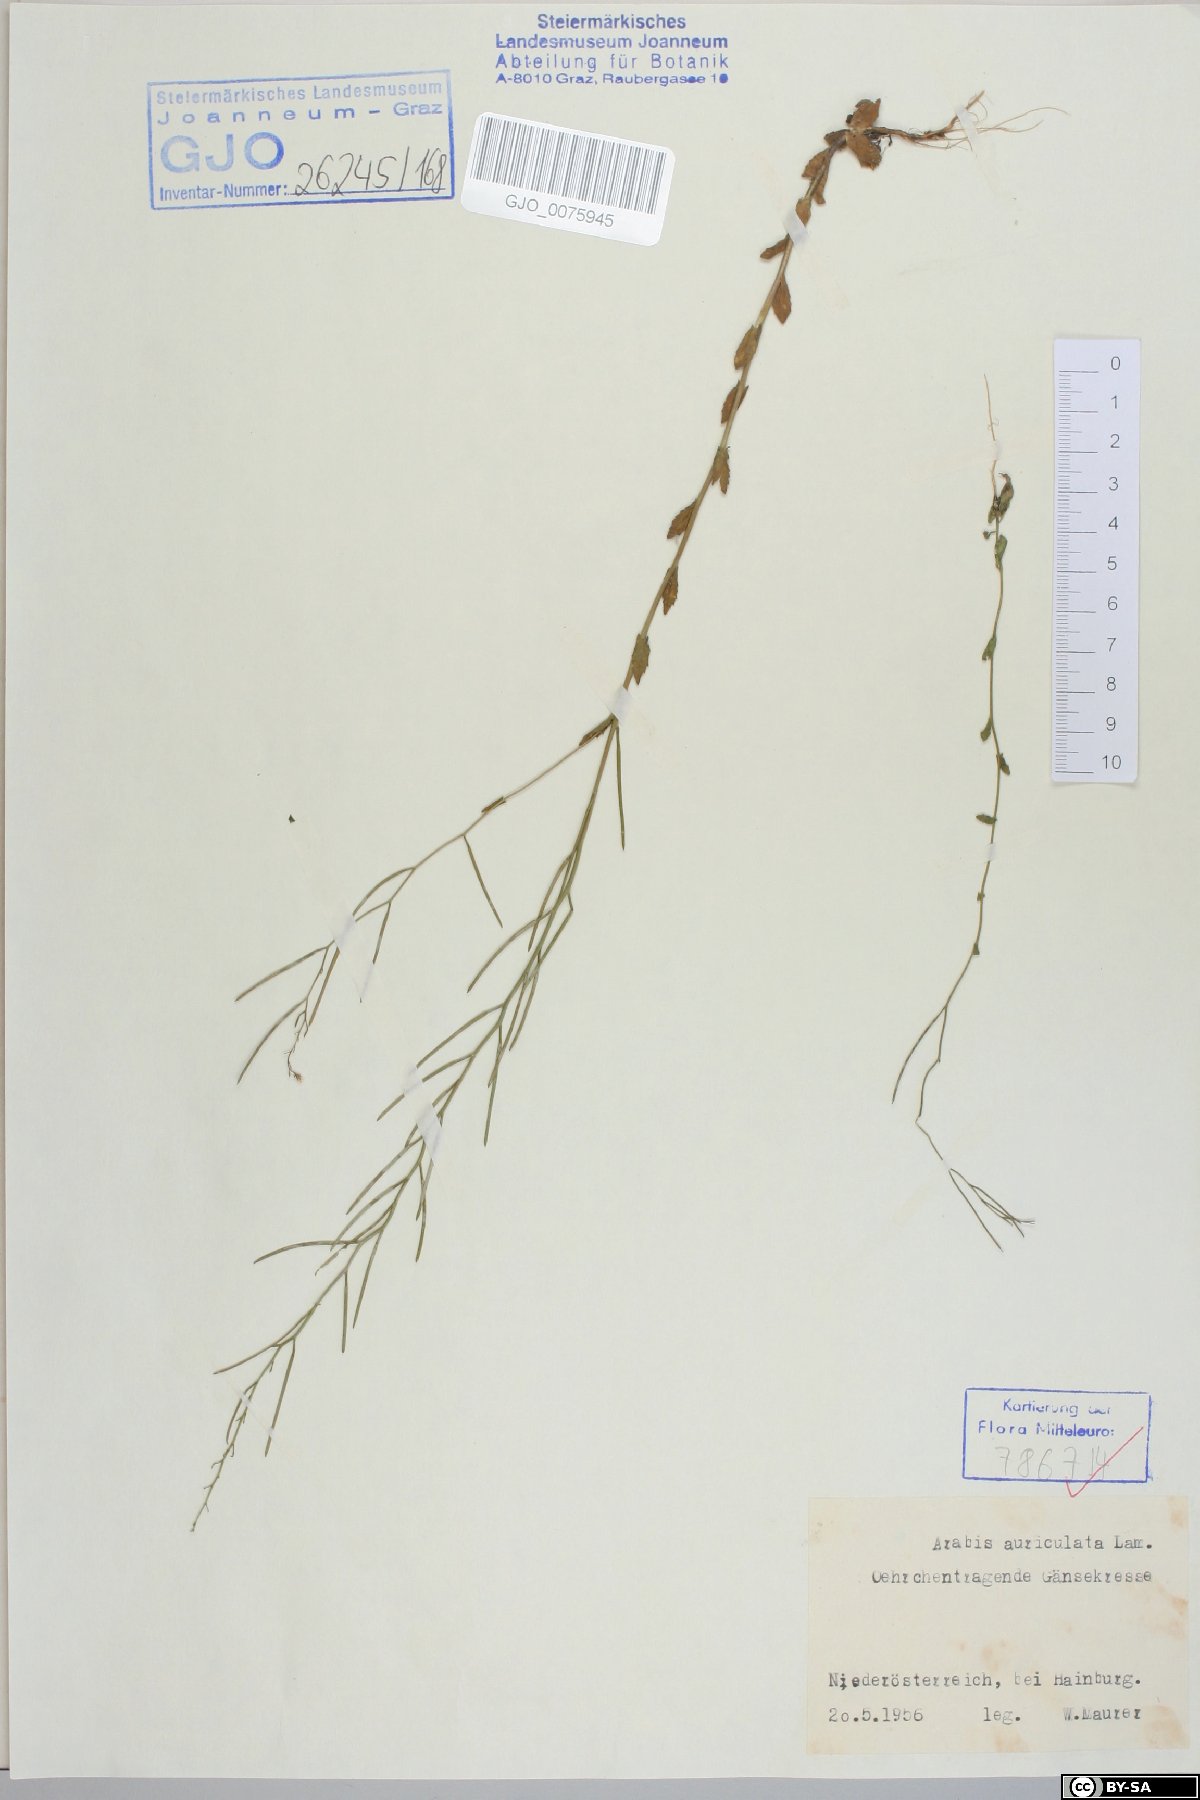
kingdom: Plantae
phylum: Tracheophyta
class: Magnoliopsida
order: Brassicales
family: Brassicaceae
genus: Arabis
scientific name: Arabis auriculata
